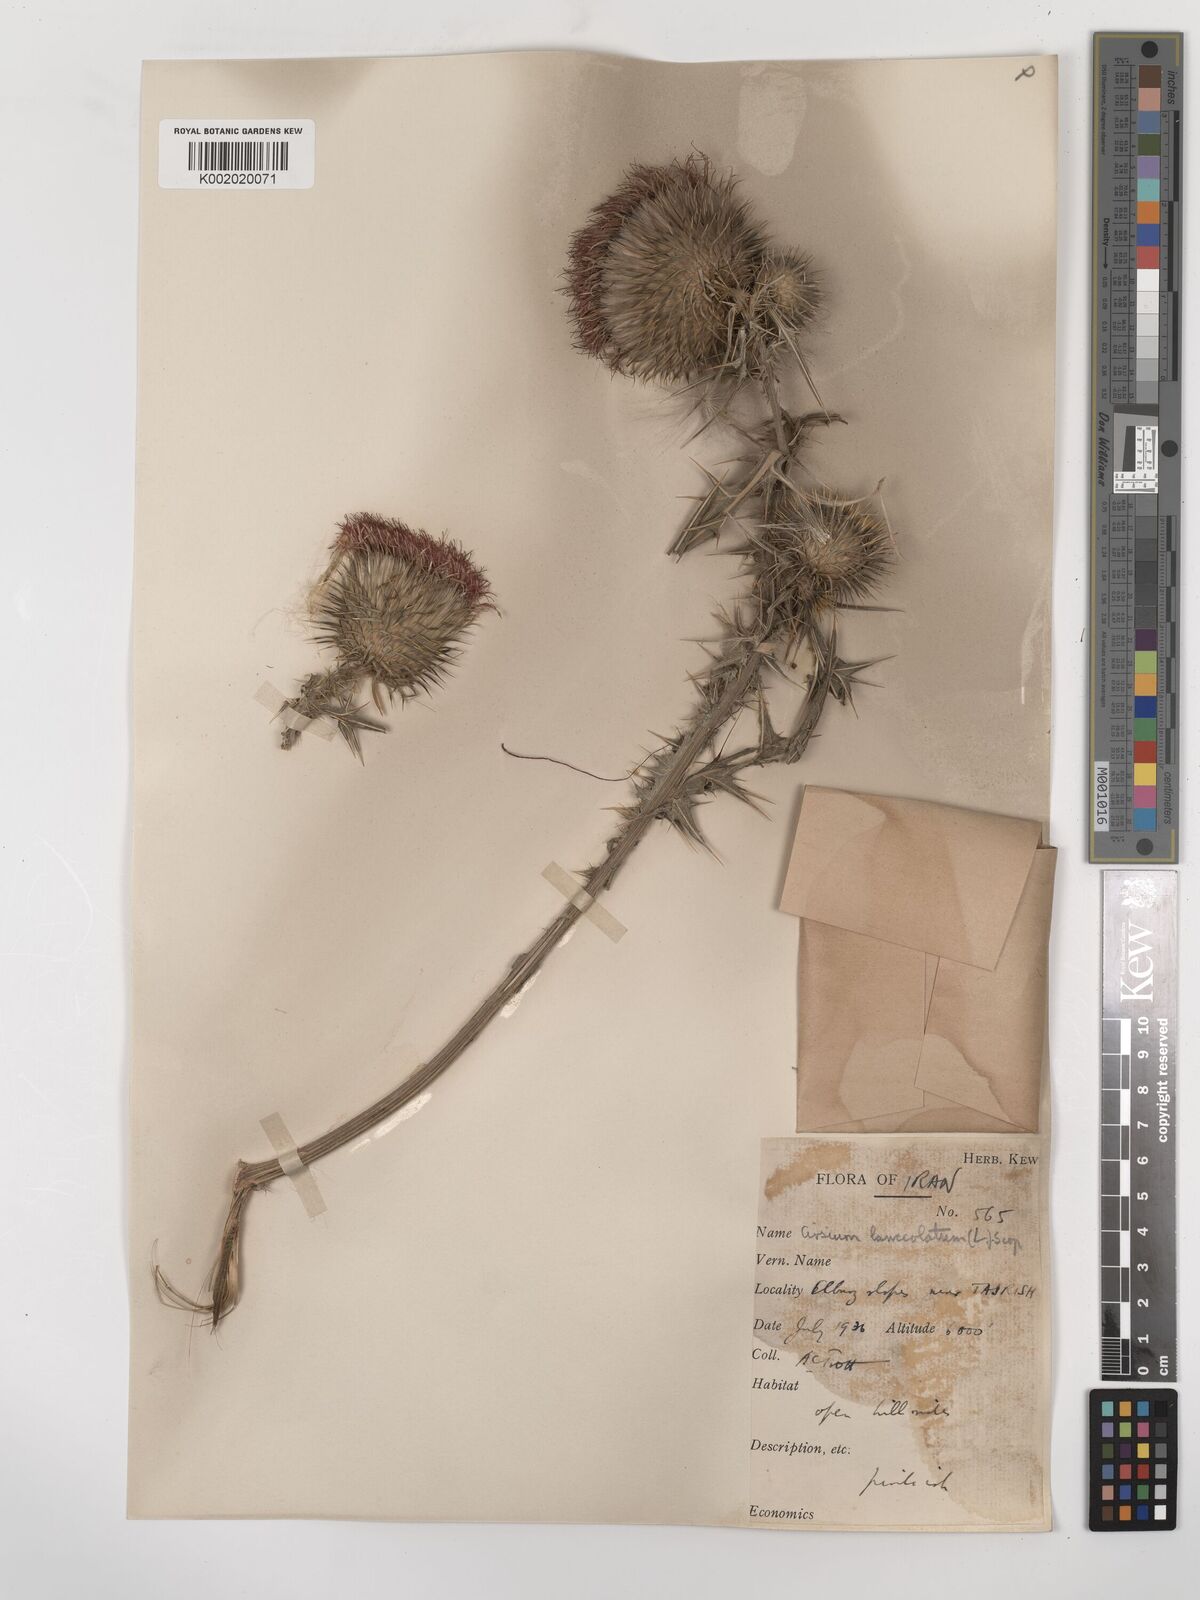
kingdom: Plantae
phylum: Tracheophyta
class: Magnoliopsida
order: Asterales
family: Asteraceae
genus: Cirsium
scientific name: Cirsium vulgare
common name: Bull thistle
